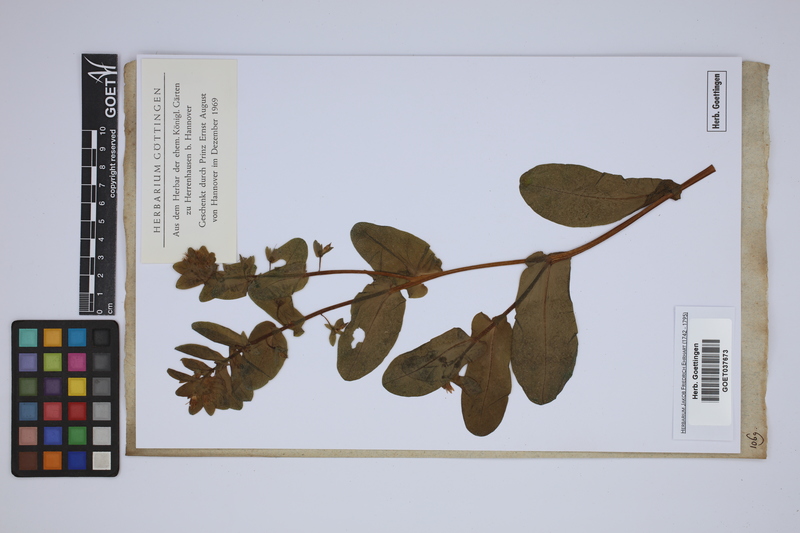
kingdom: Plantae
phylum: Tracheophyta
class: Magnoliopsida
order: Boraginales
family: Boraginaceae
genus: Cerinthe
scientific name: Cerinthe minor
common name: Lesser honeywort
